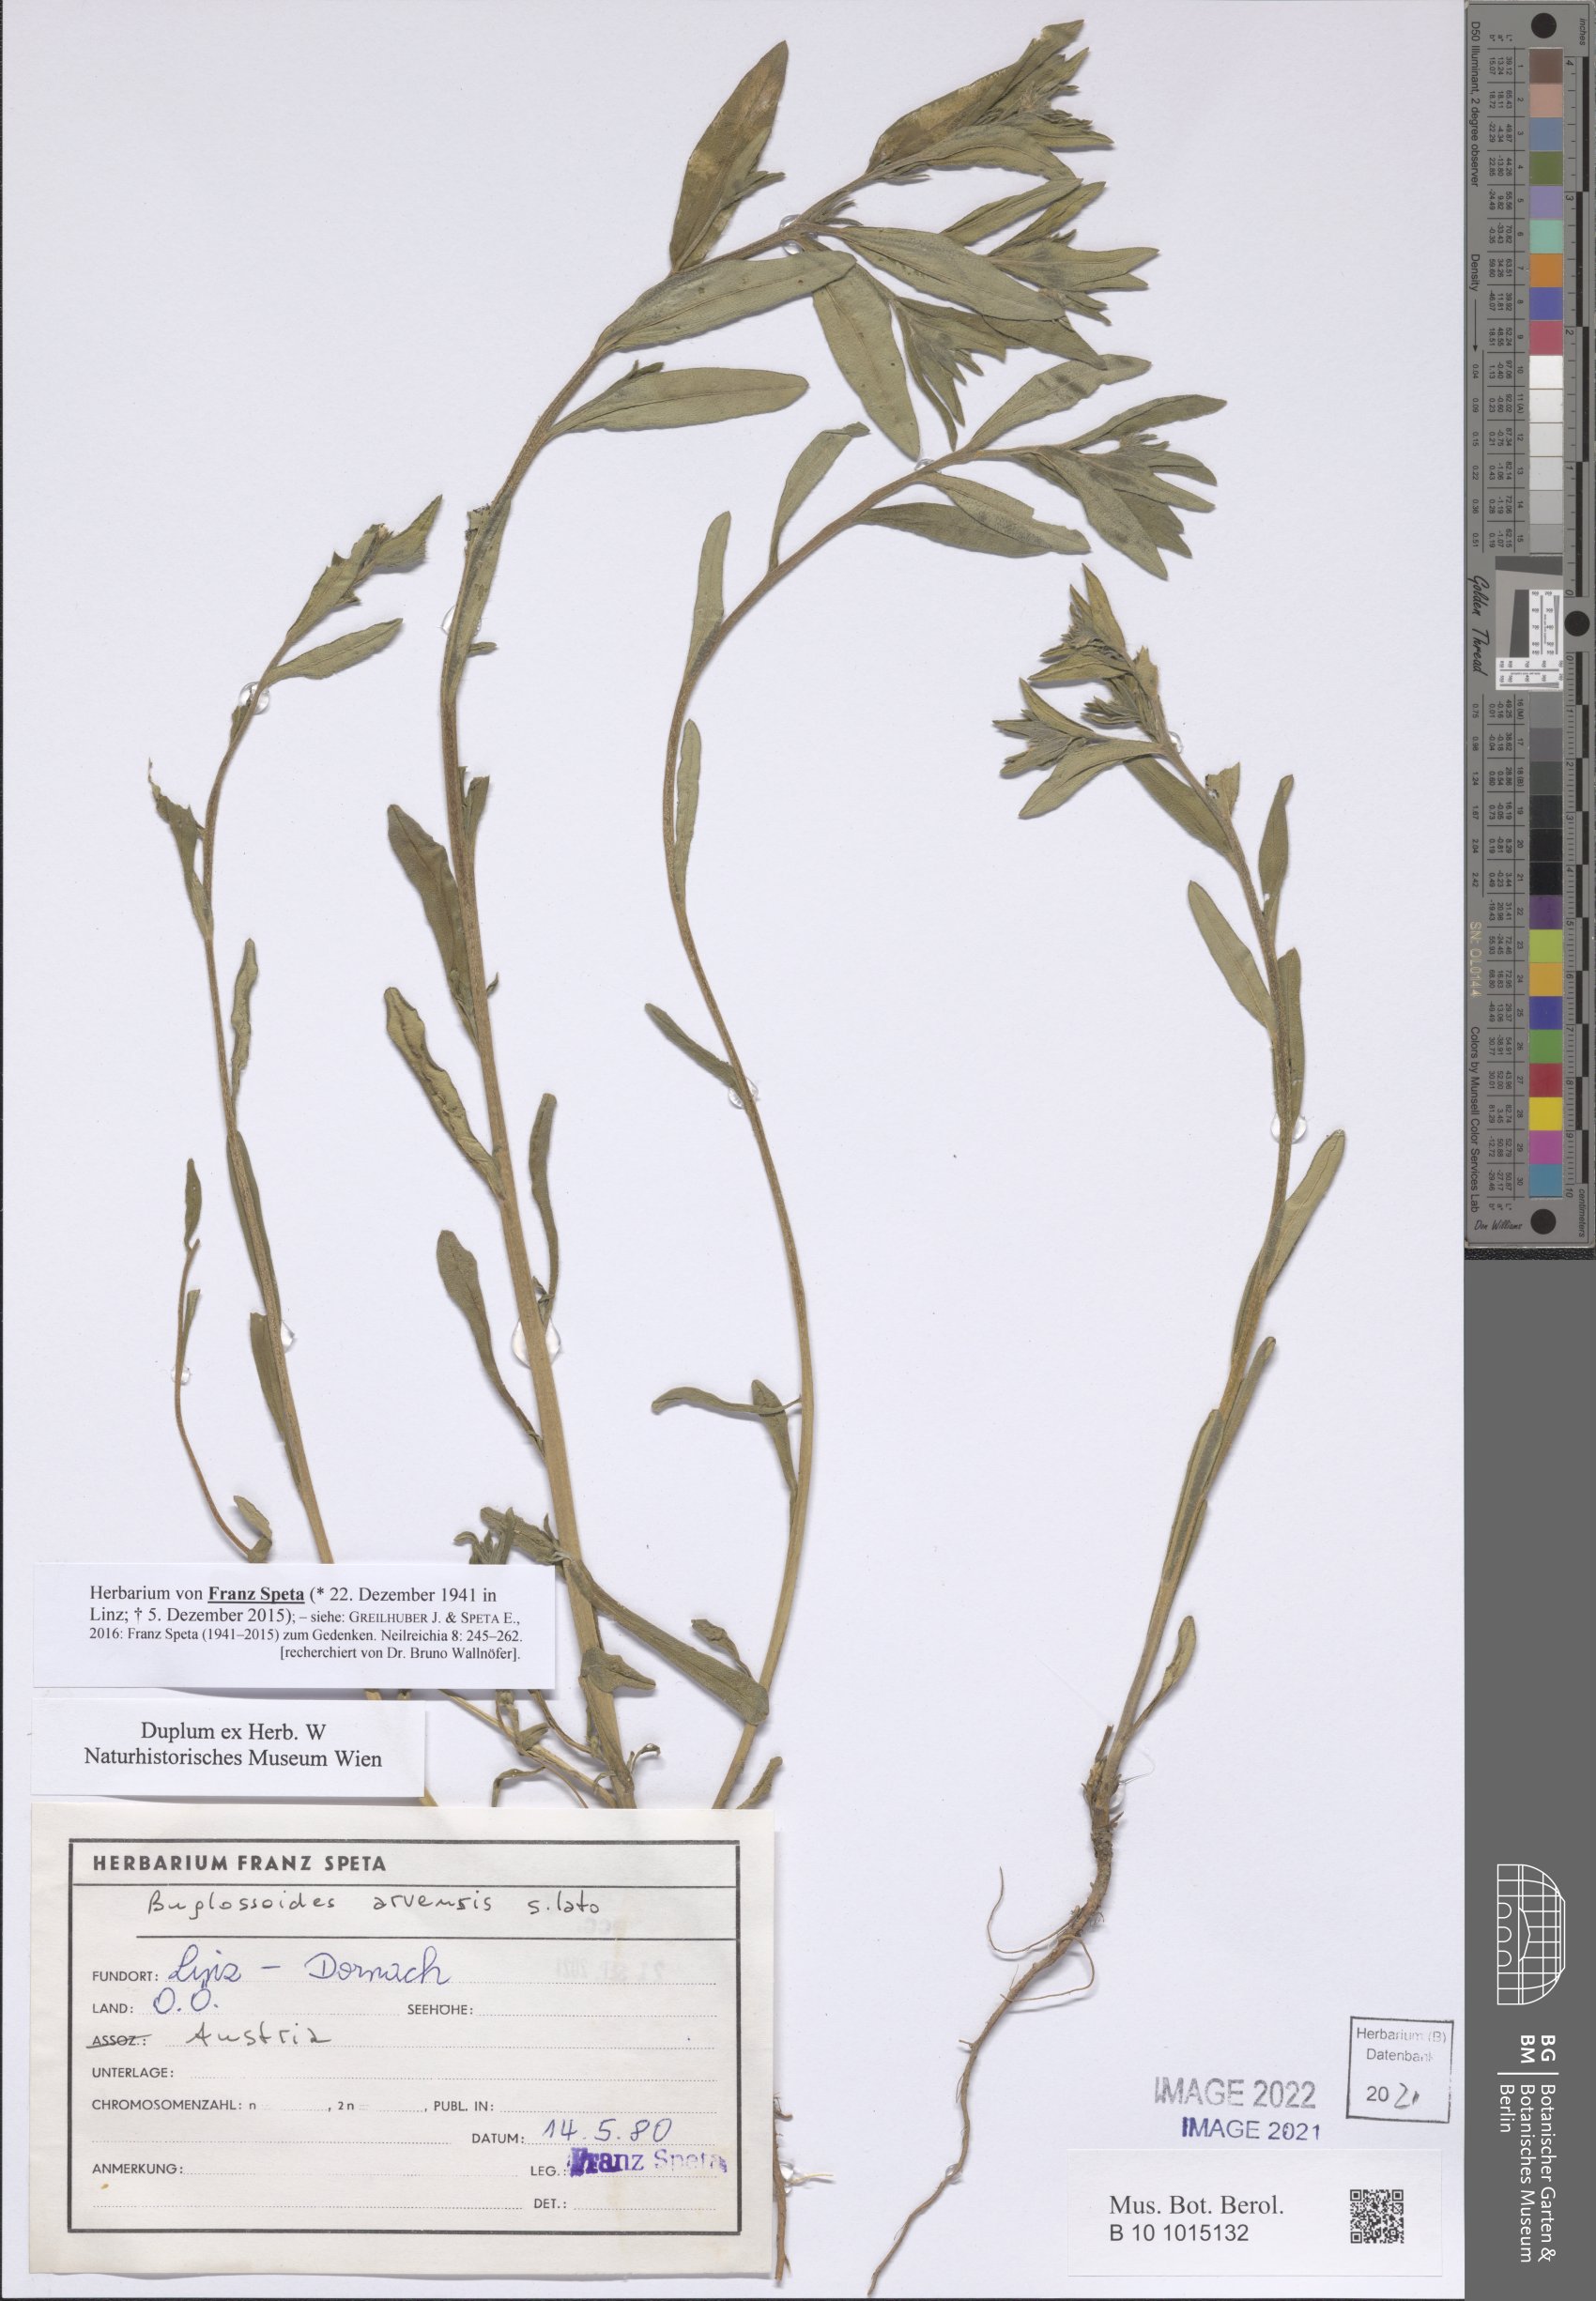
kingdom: Plantae
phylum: Tracheophyta
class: Magnoliopsida
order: Boraginales
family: Boraginaceae
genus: Buglossoides
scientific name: Buglossoides arvensis
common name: Corn gromwell
